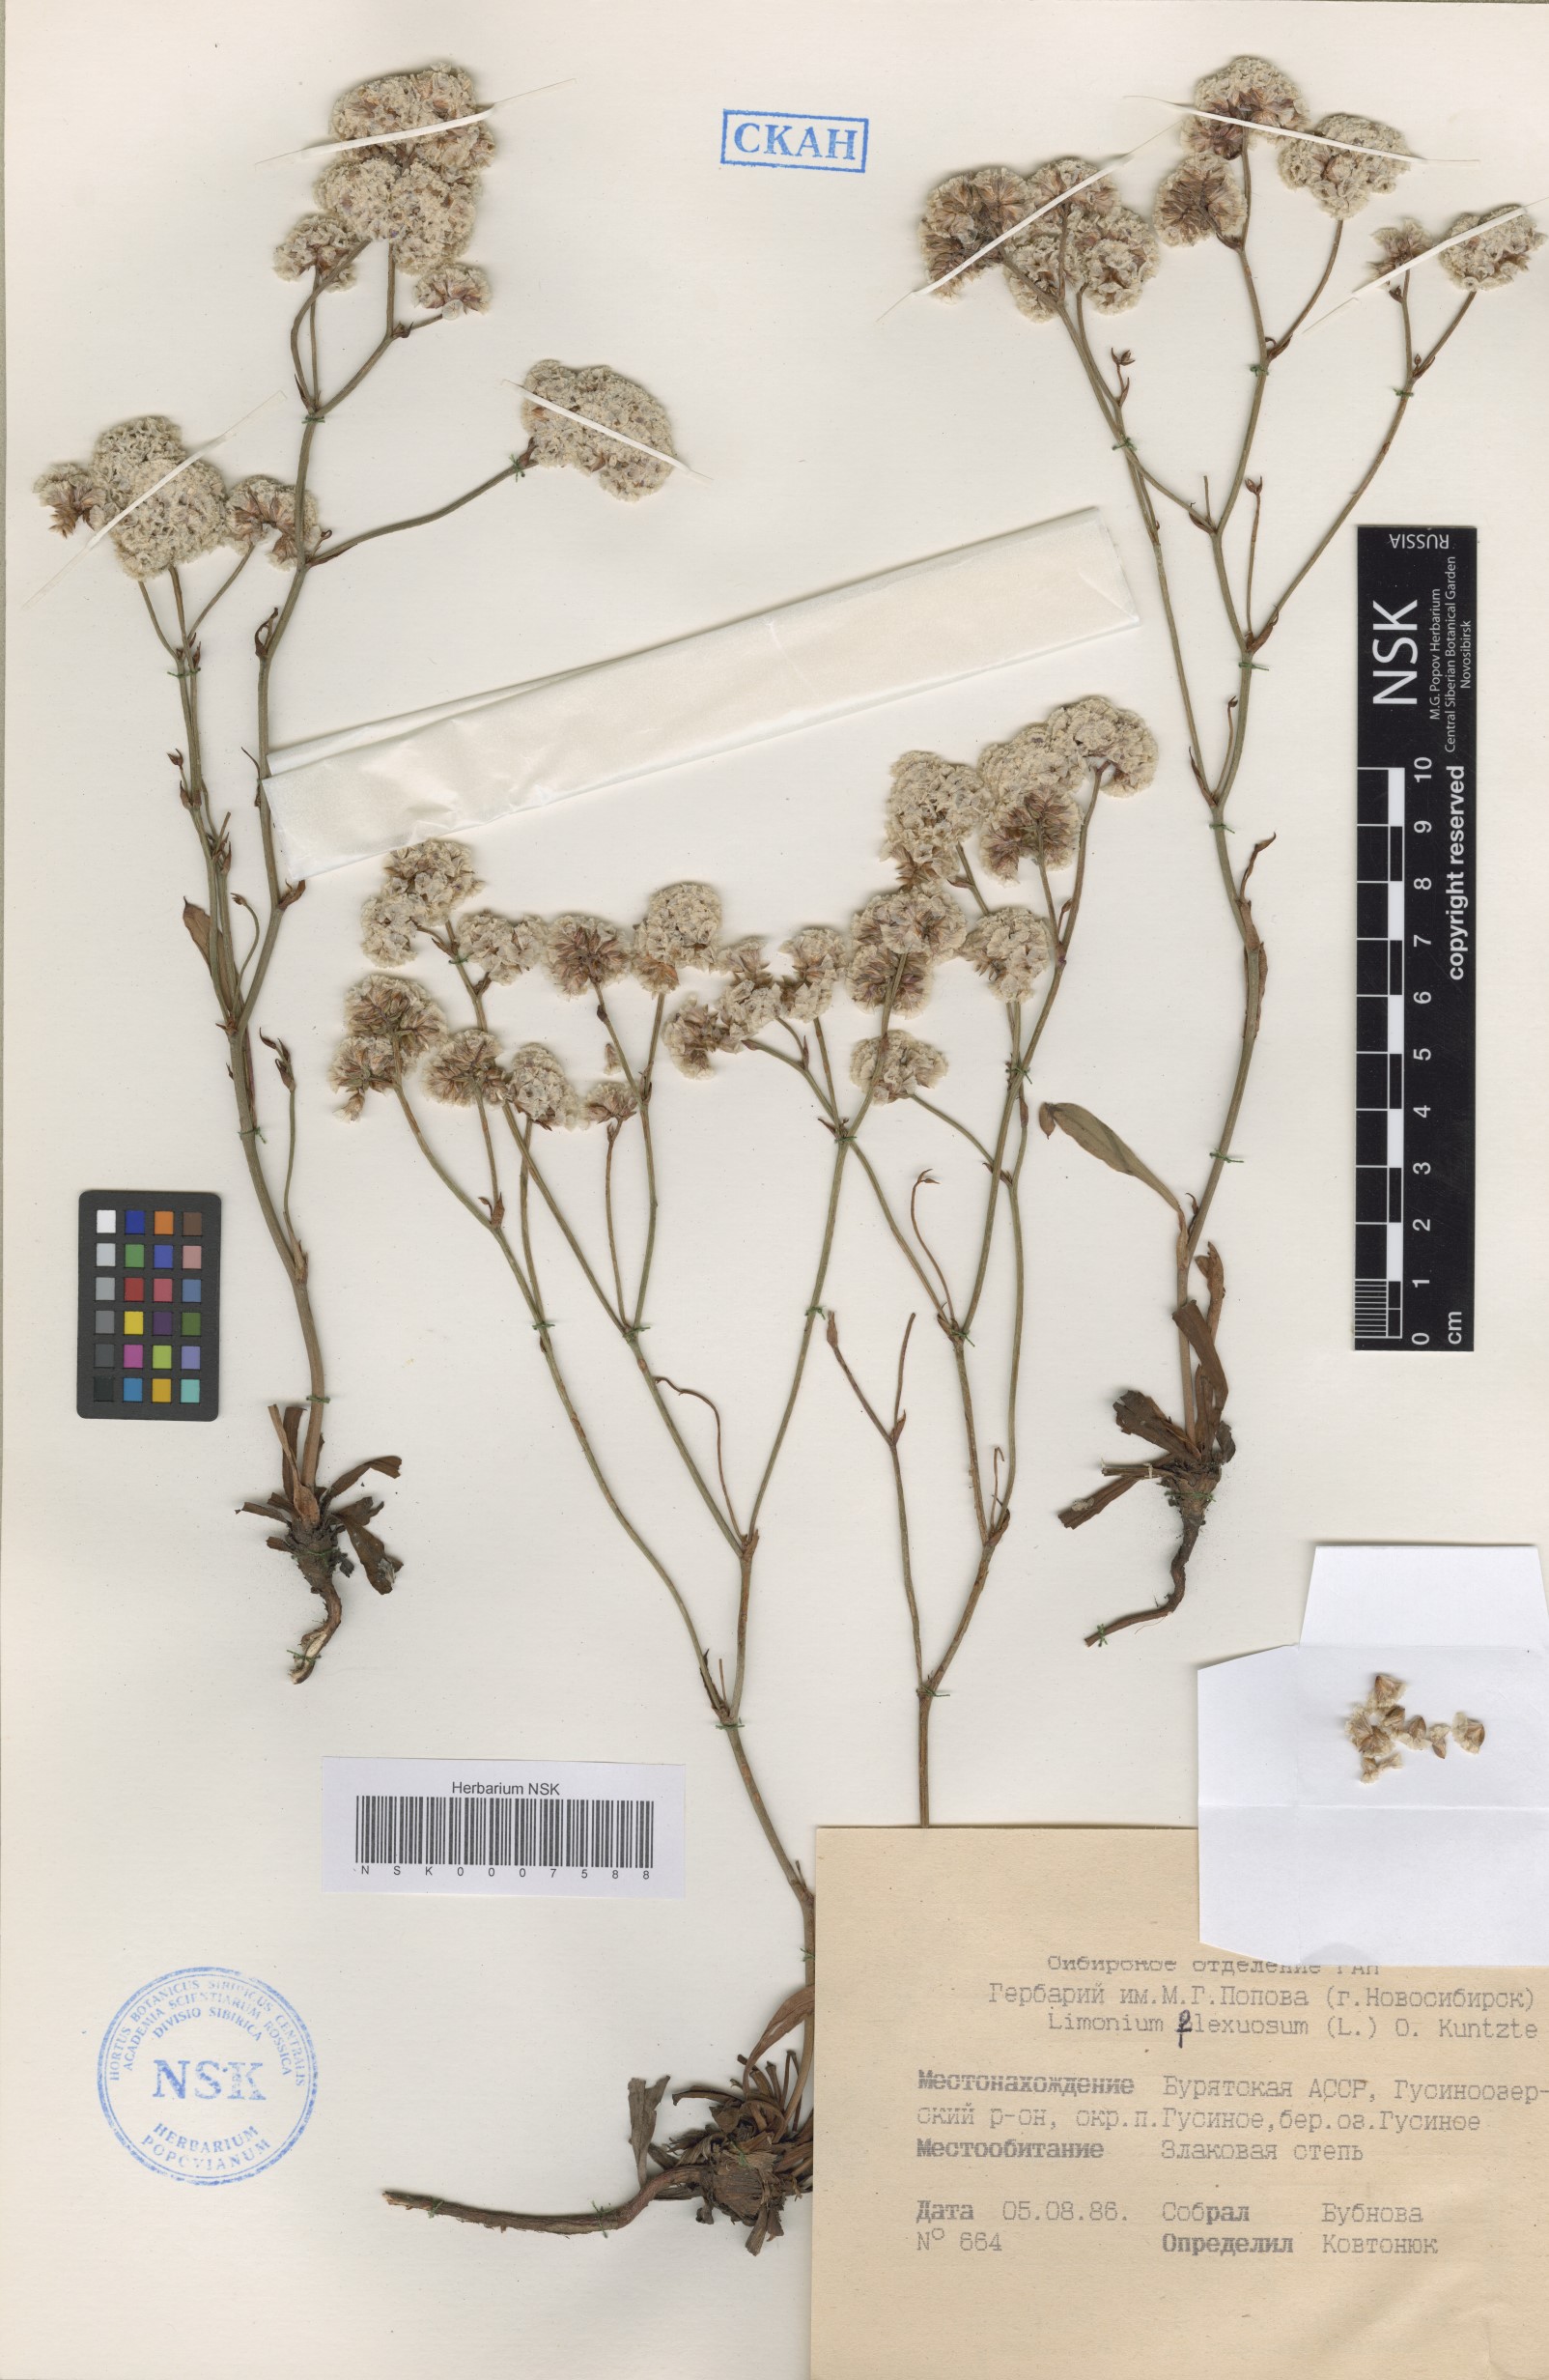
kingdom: Plantae
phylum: Tracheophyta
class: Magnoliopsida
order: Caryophyllales
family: Plumbaginaceae
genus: Limonium
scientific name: Limonium flexuosum
